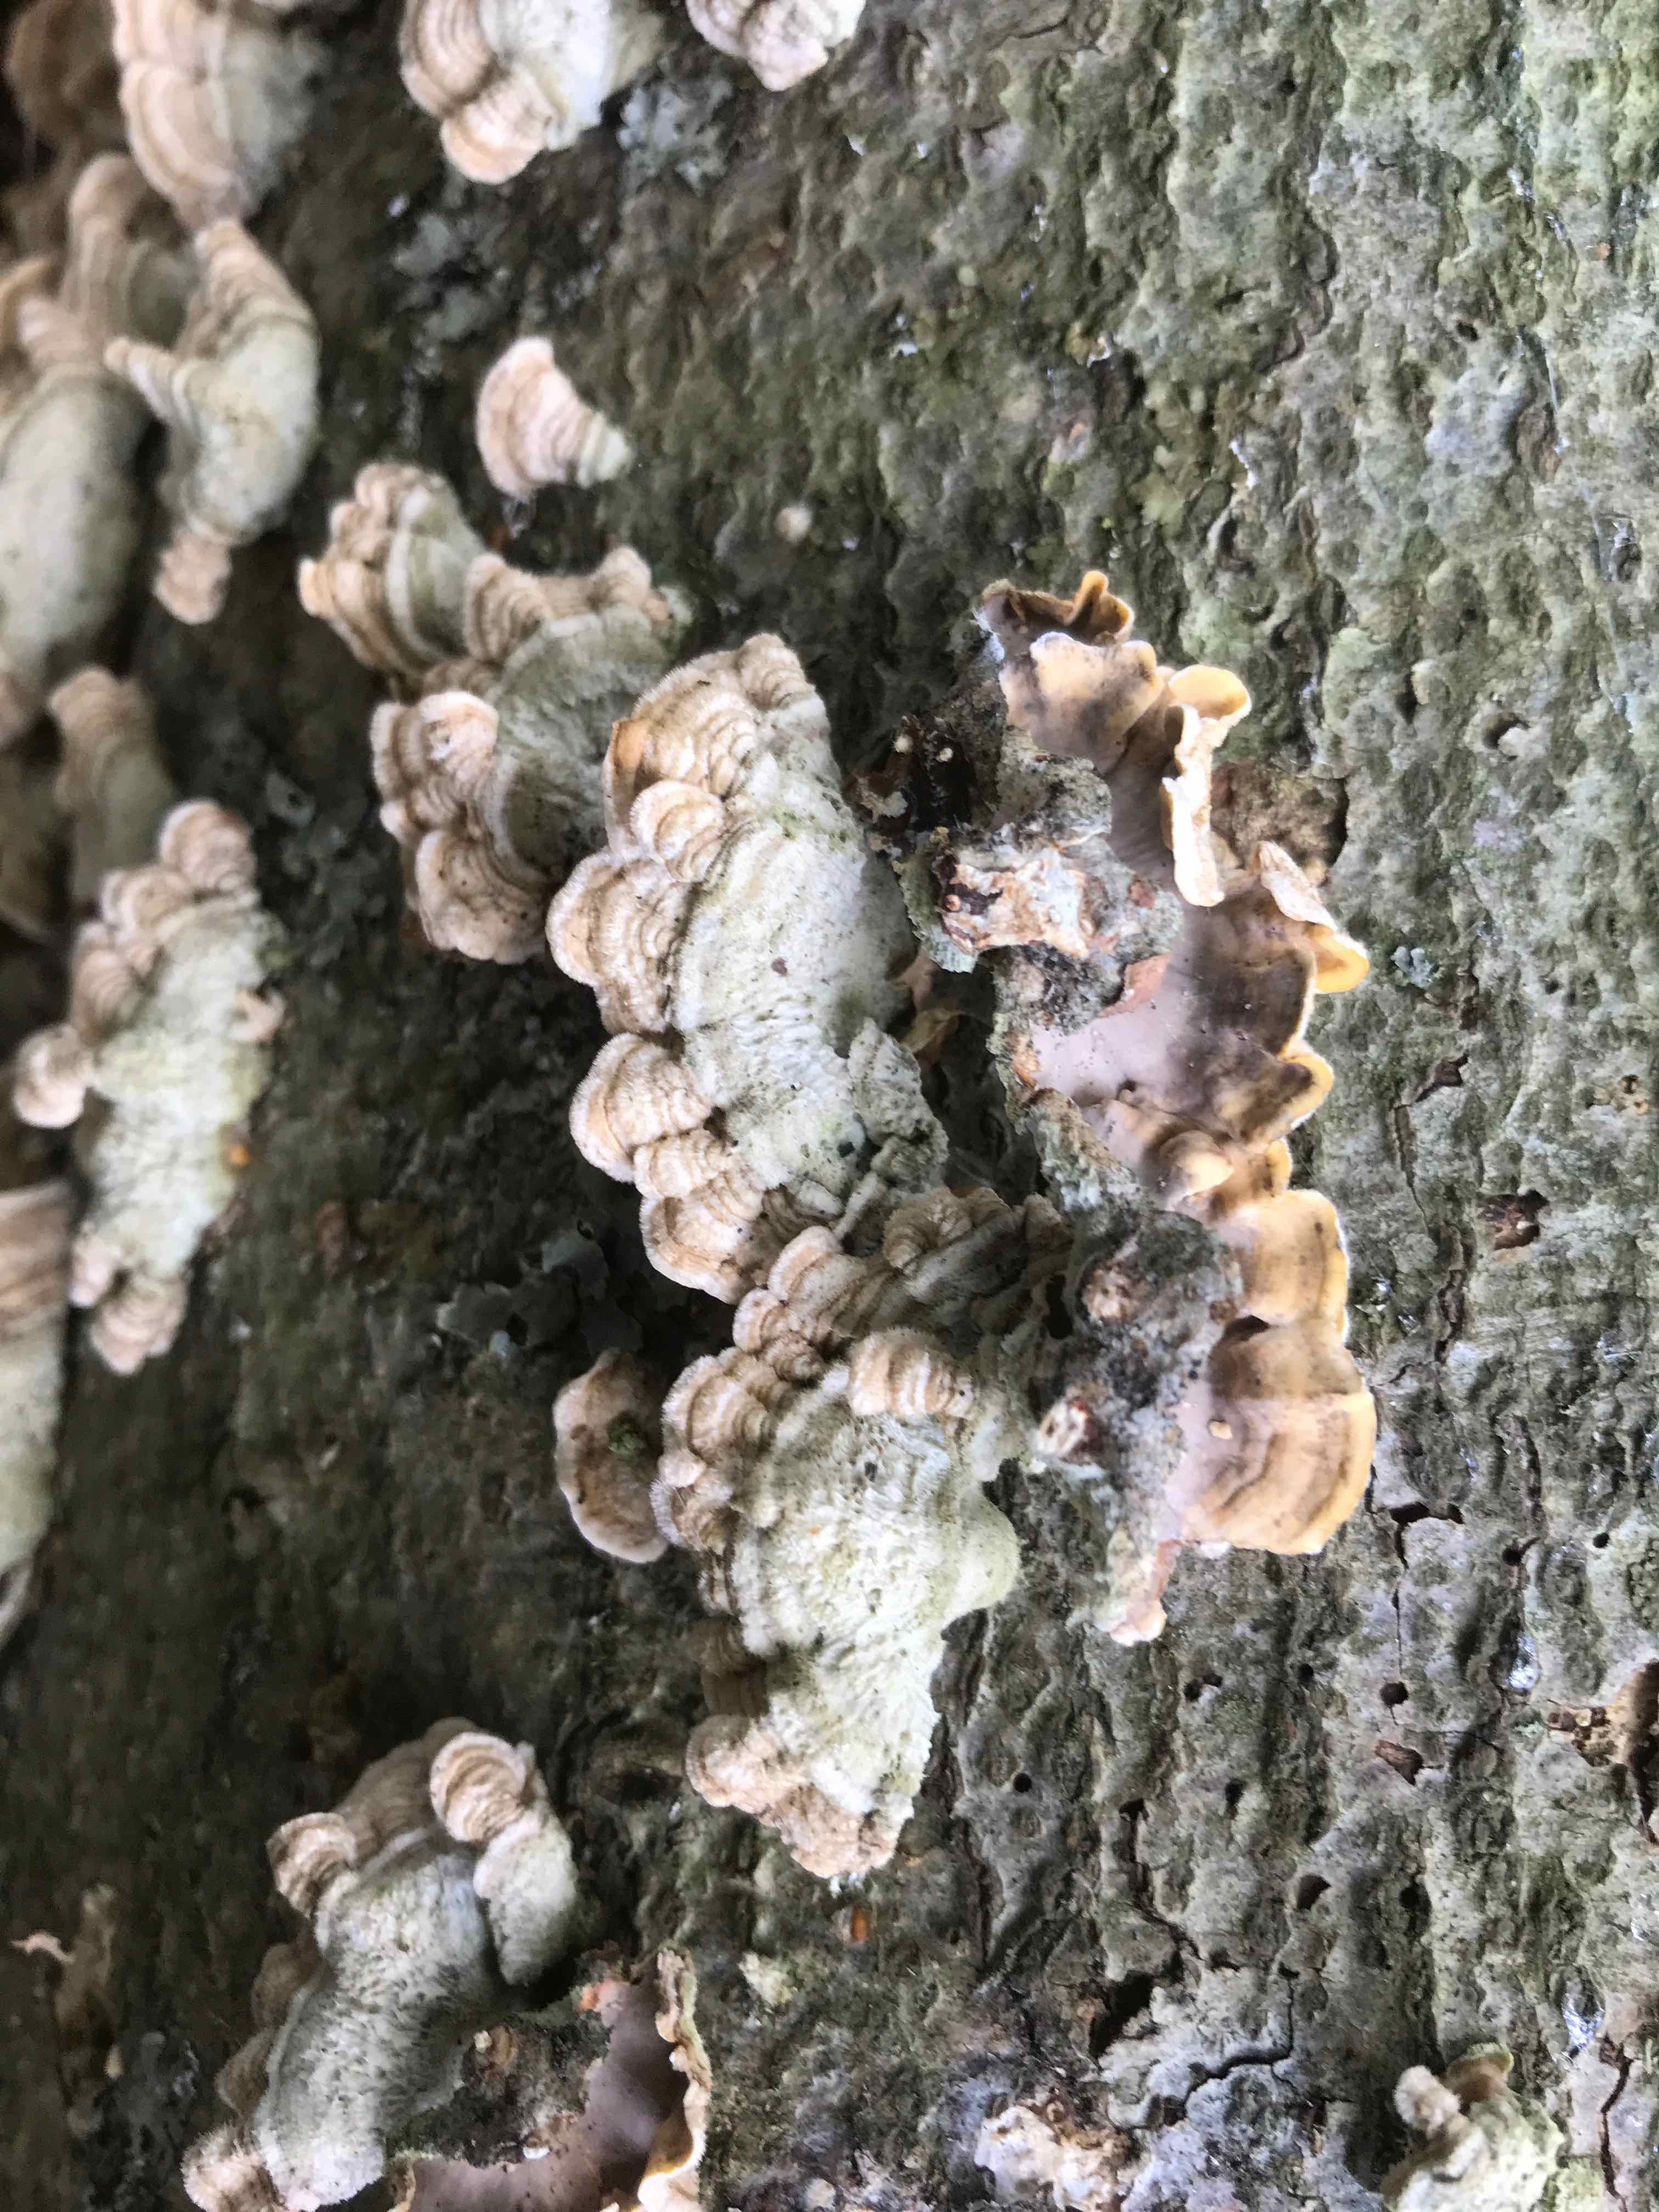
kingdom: Fungi
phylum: Basidiomycota
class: Agaricomycetes
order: Russulales
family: Stereaceae
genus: Stereum
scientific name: Stereum hirsutum
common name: håret lædersvamp
